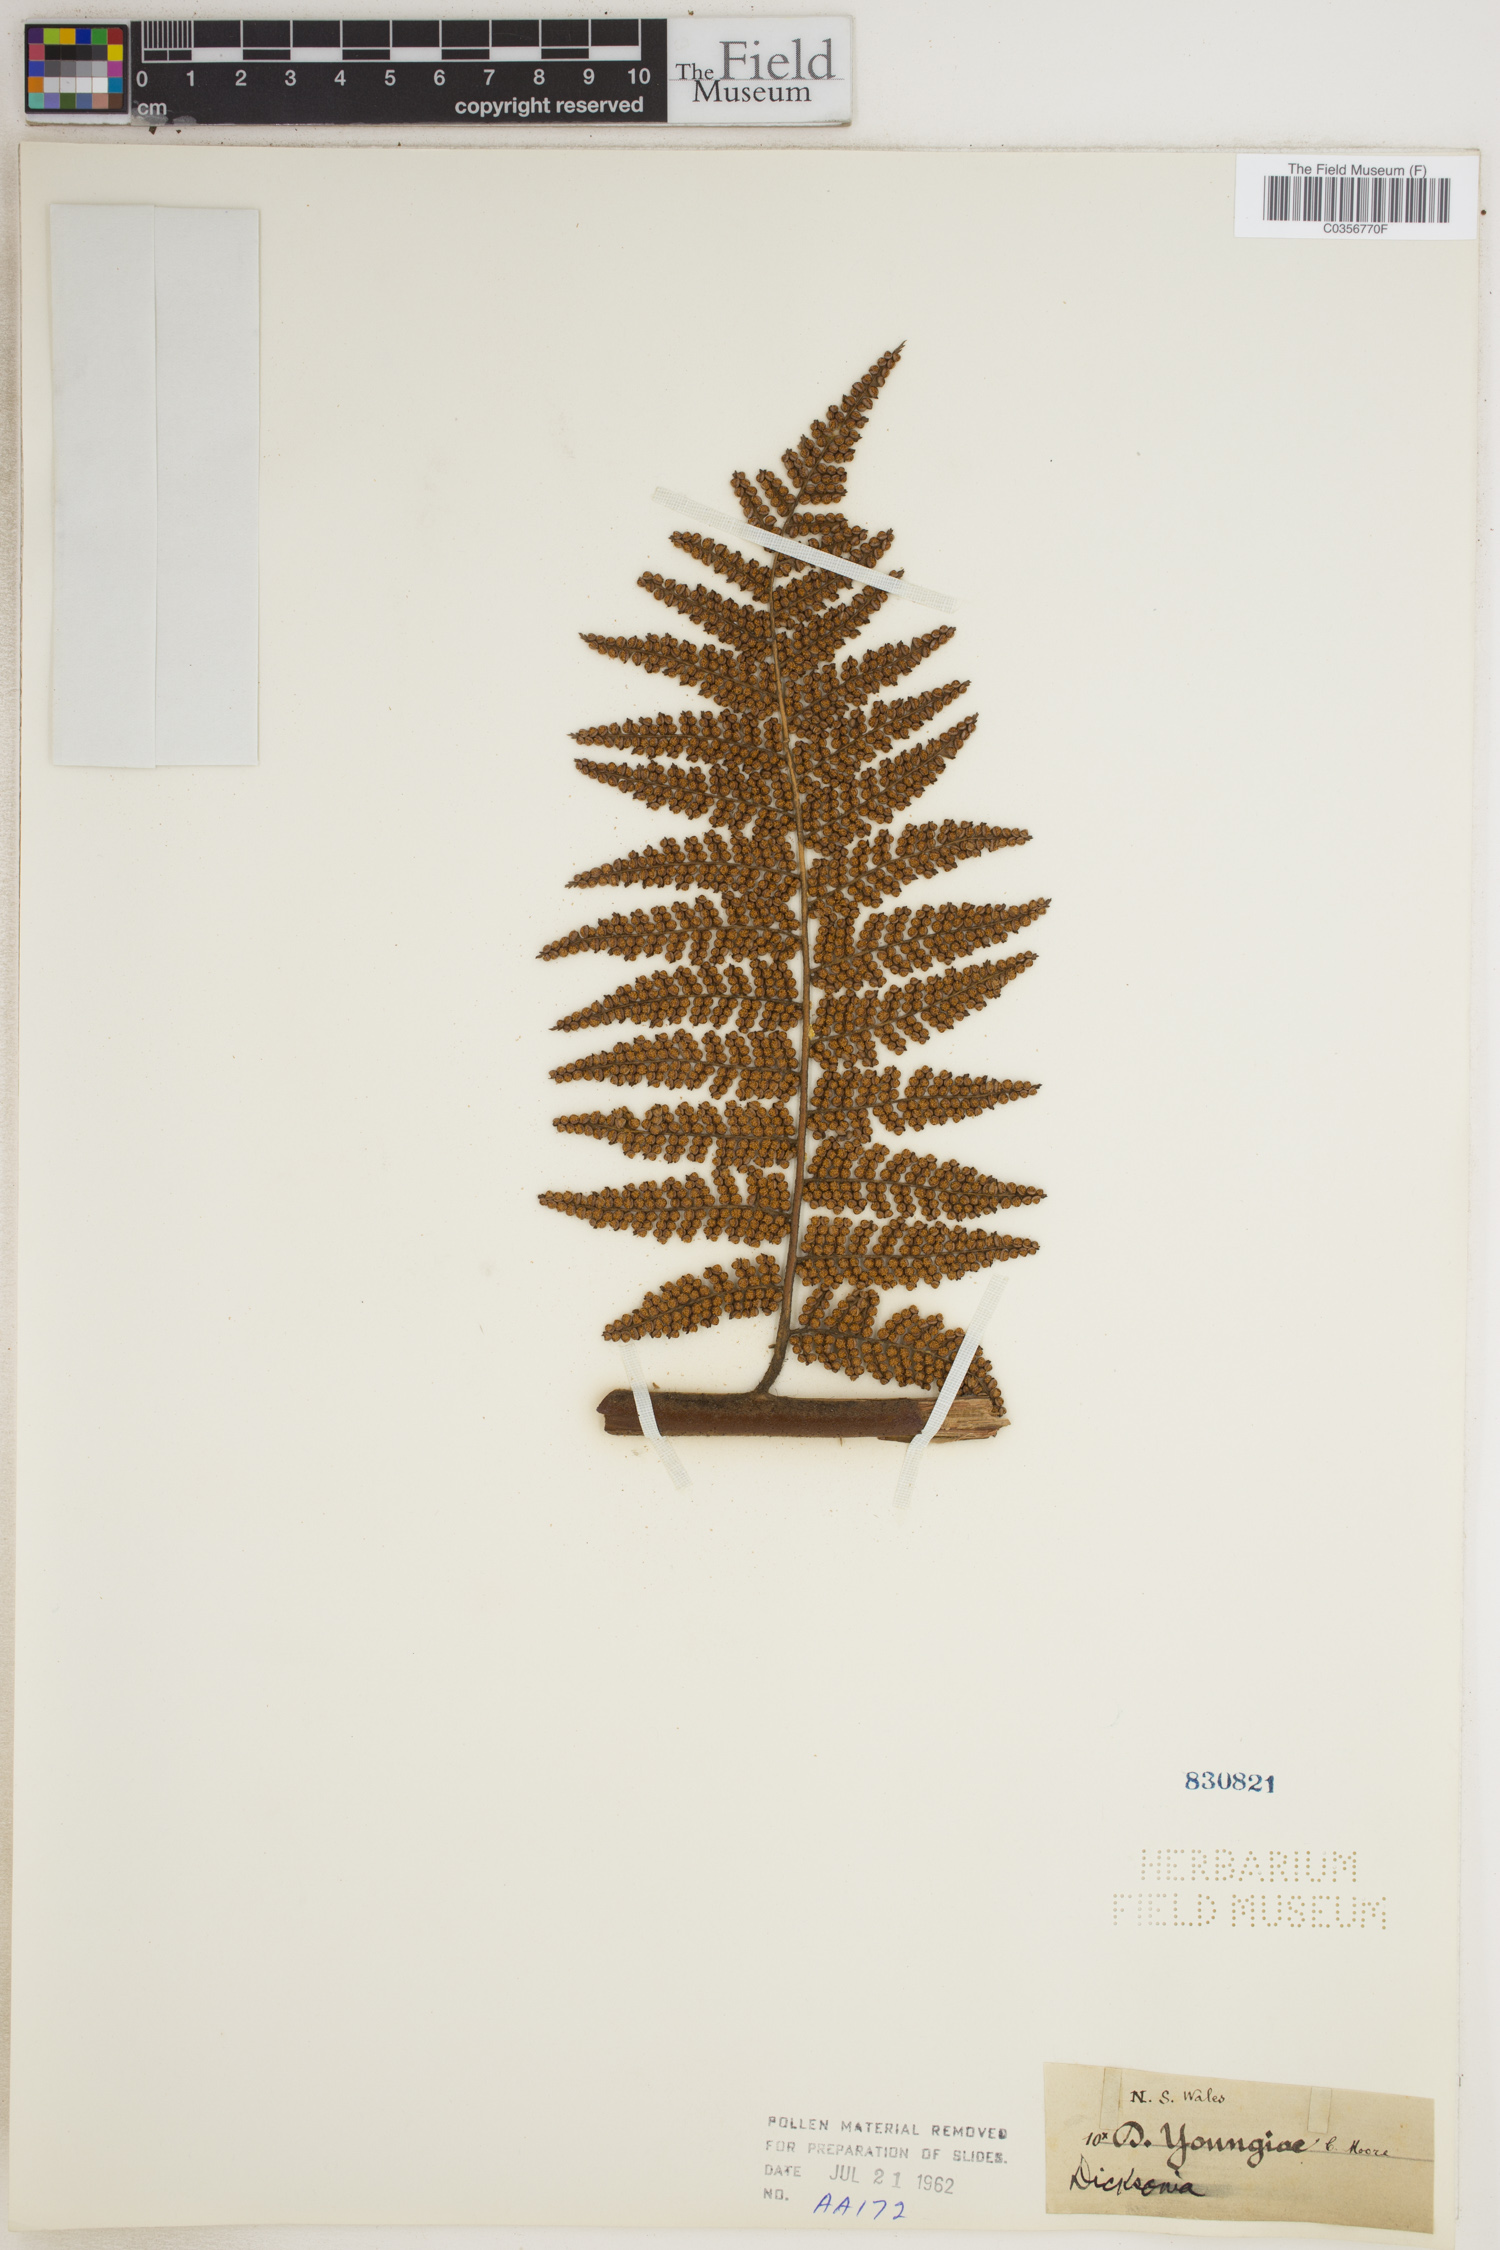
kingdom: Plantae
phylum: Tracheophyta
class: Polypodiopsida
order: Cyatheales
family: Dicksoniaceae
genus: Dicksonia
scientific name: Dicksonia youngiae
